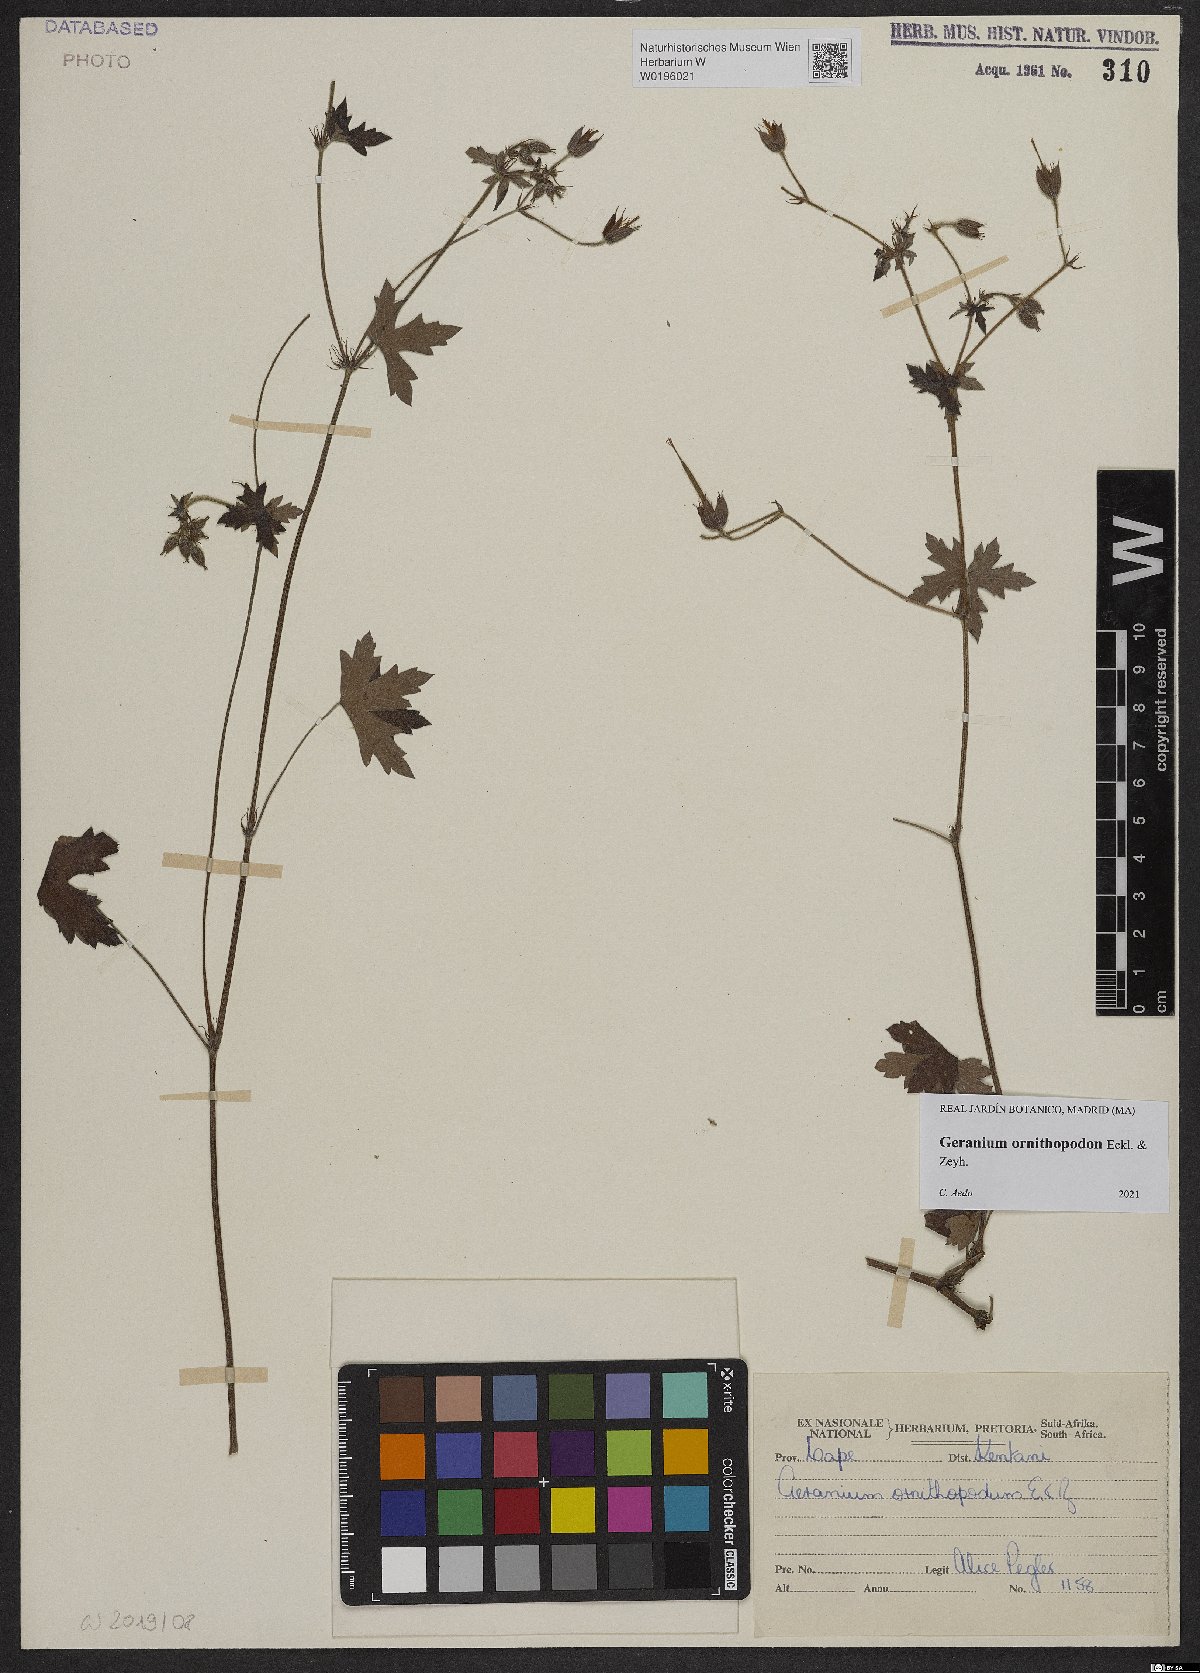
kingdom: Plantae
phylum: Tracheophyta
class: Magnoliopsida
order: Geraniales
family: Geraniaceae
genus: Geranium
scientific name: Geranium ornithopodon
